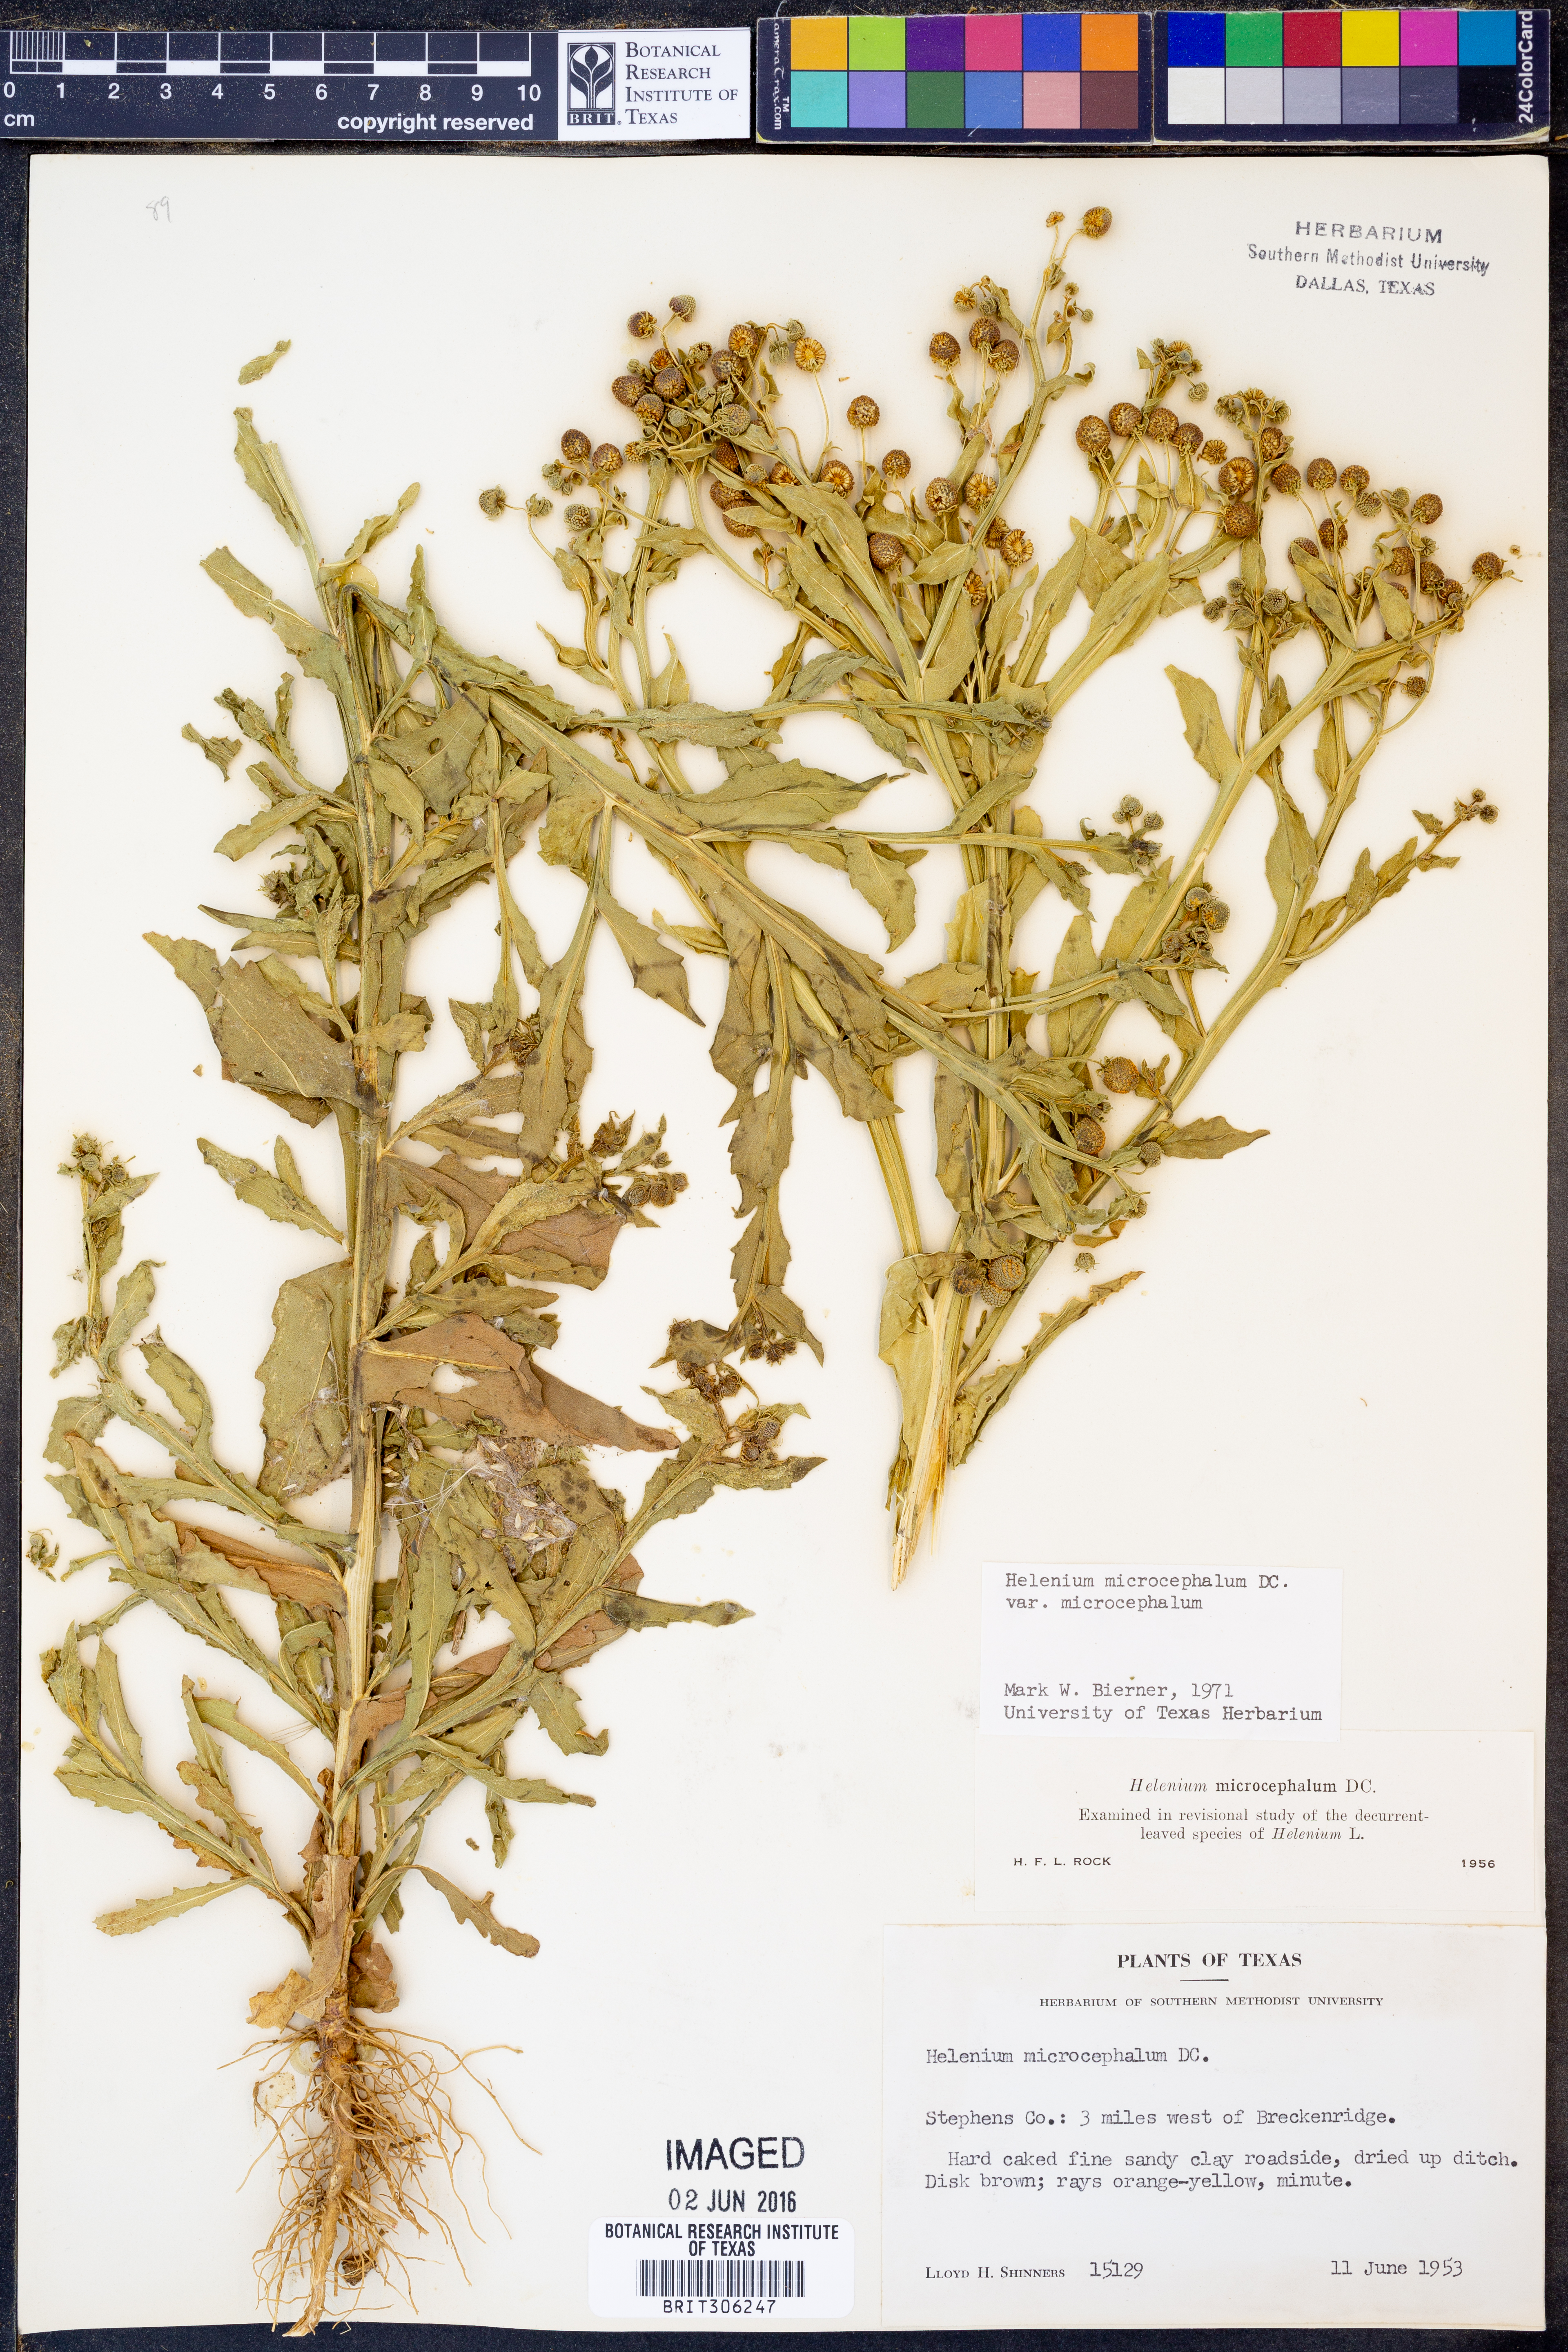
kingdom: Plantae
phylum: Tracheophyta
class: Magnoliopsida
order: Asterales
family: Asteraceae
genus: Helenium
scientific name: Helenium microcephalum
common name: Smallhead sneezeweed
